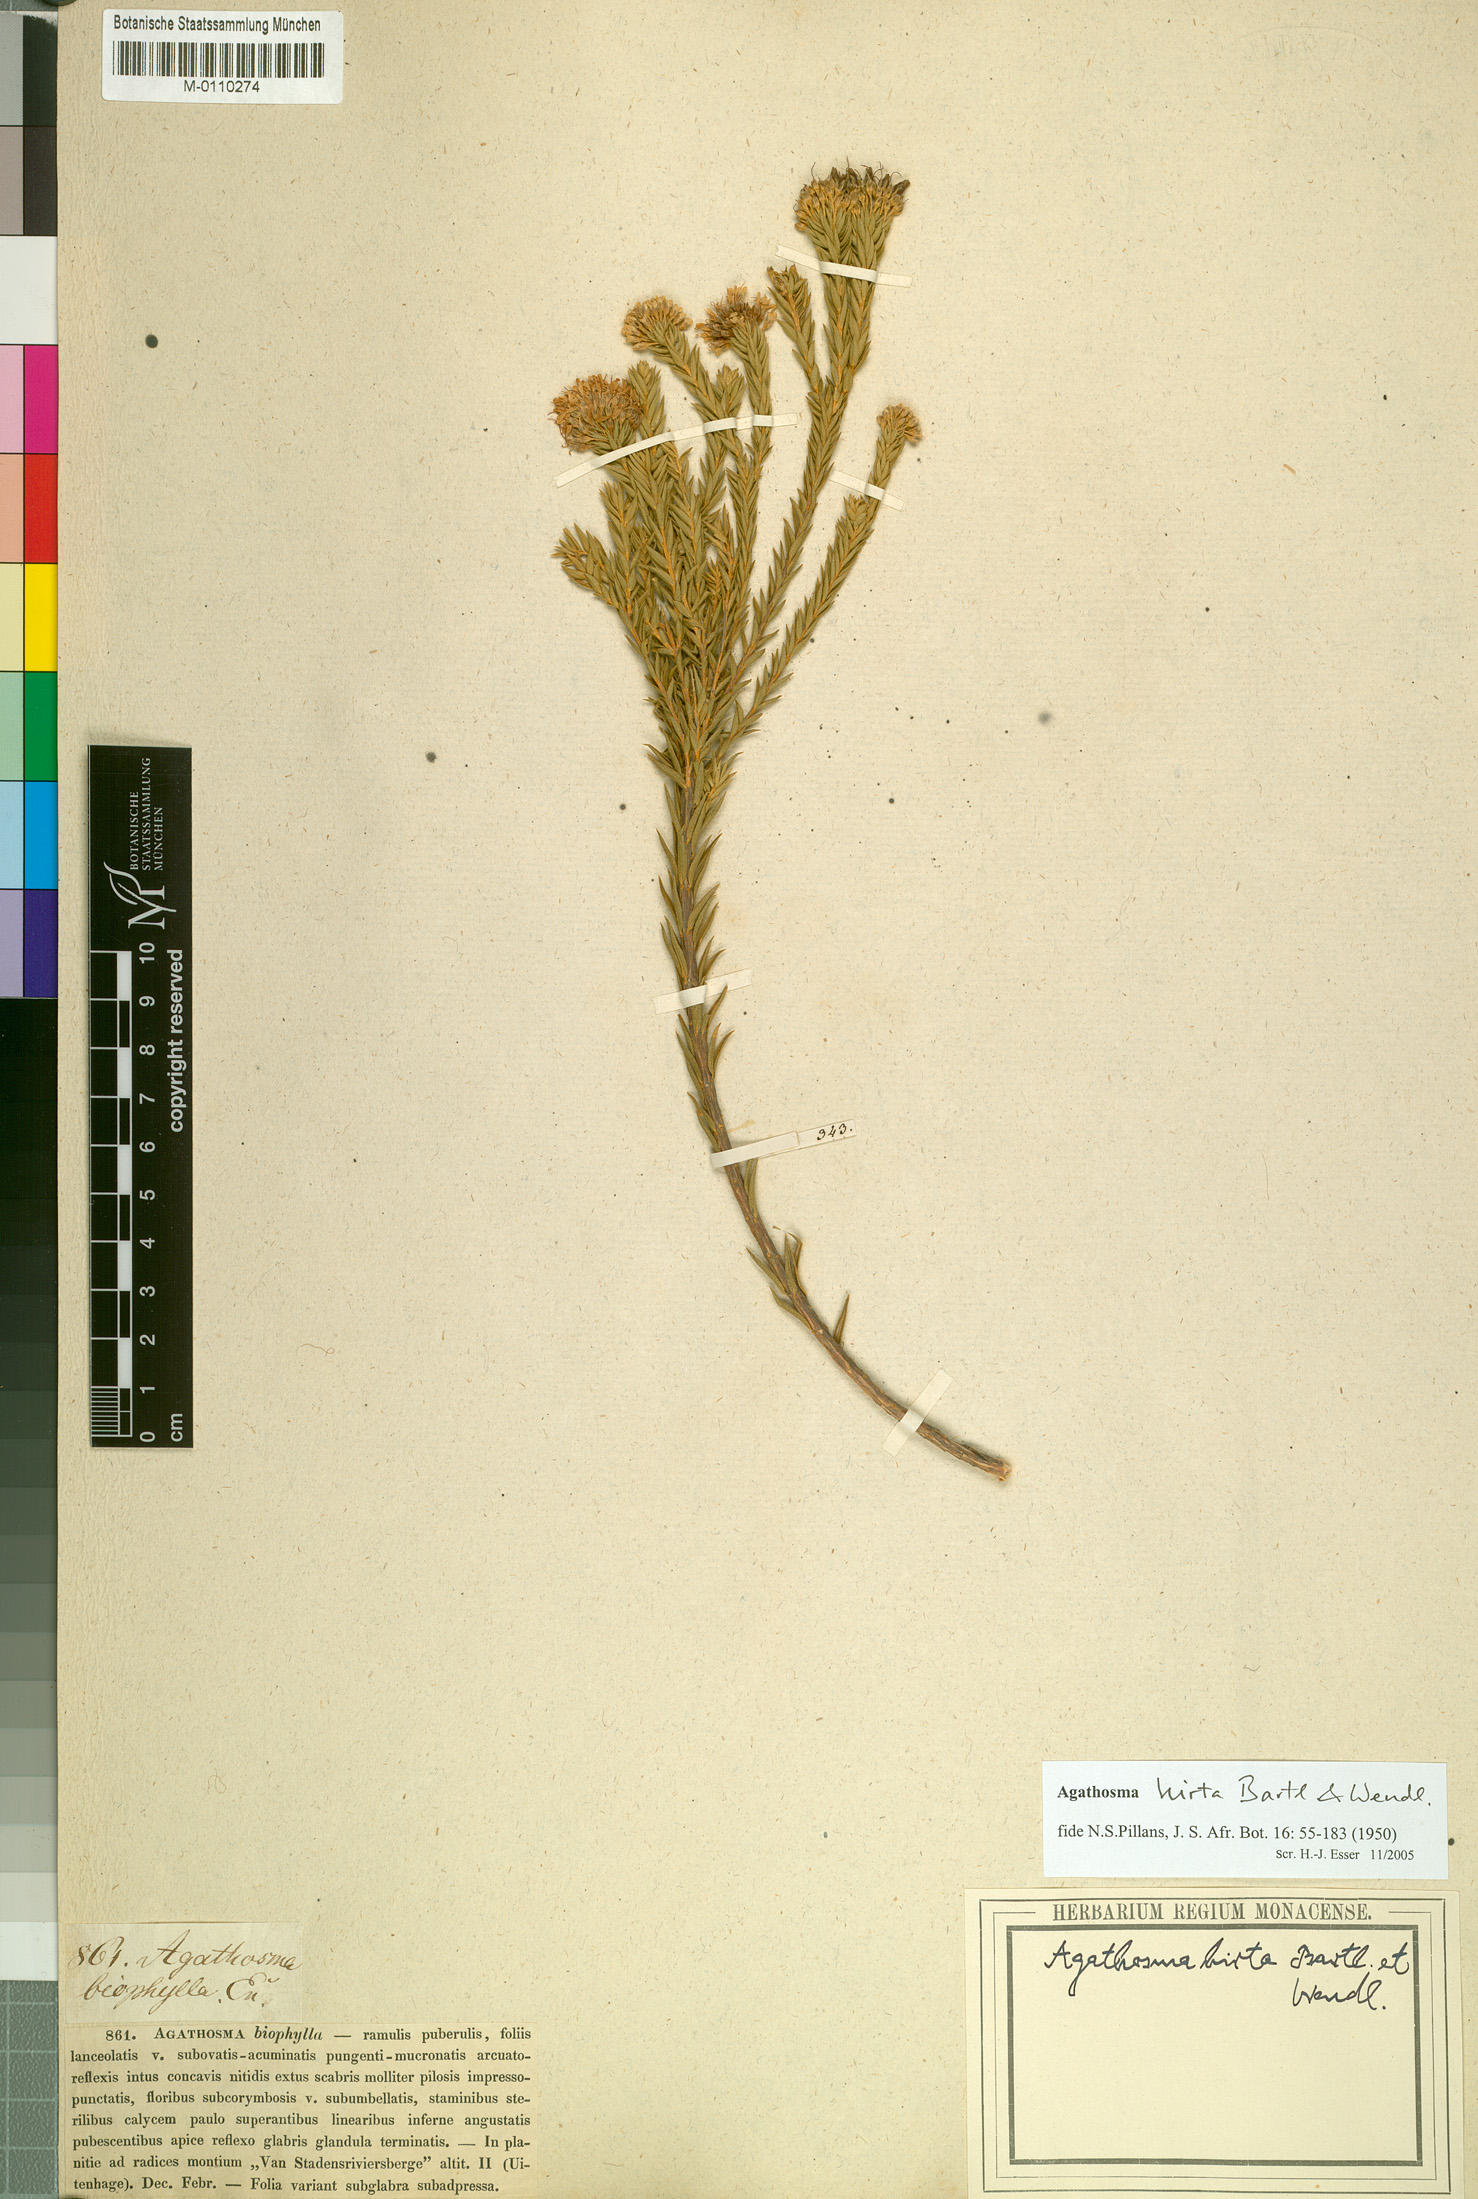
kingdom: Plantae
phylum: Tracheophyta
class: Magnoliopsida
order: Sapindales
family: Rutaceae
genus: Agathosma
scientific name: Agathosma adenocaulis
